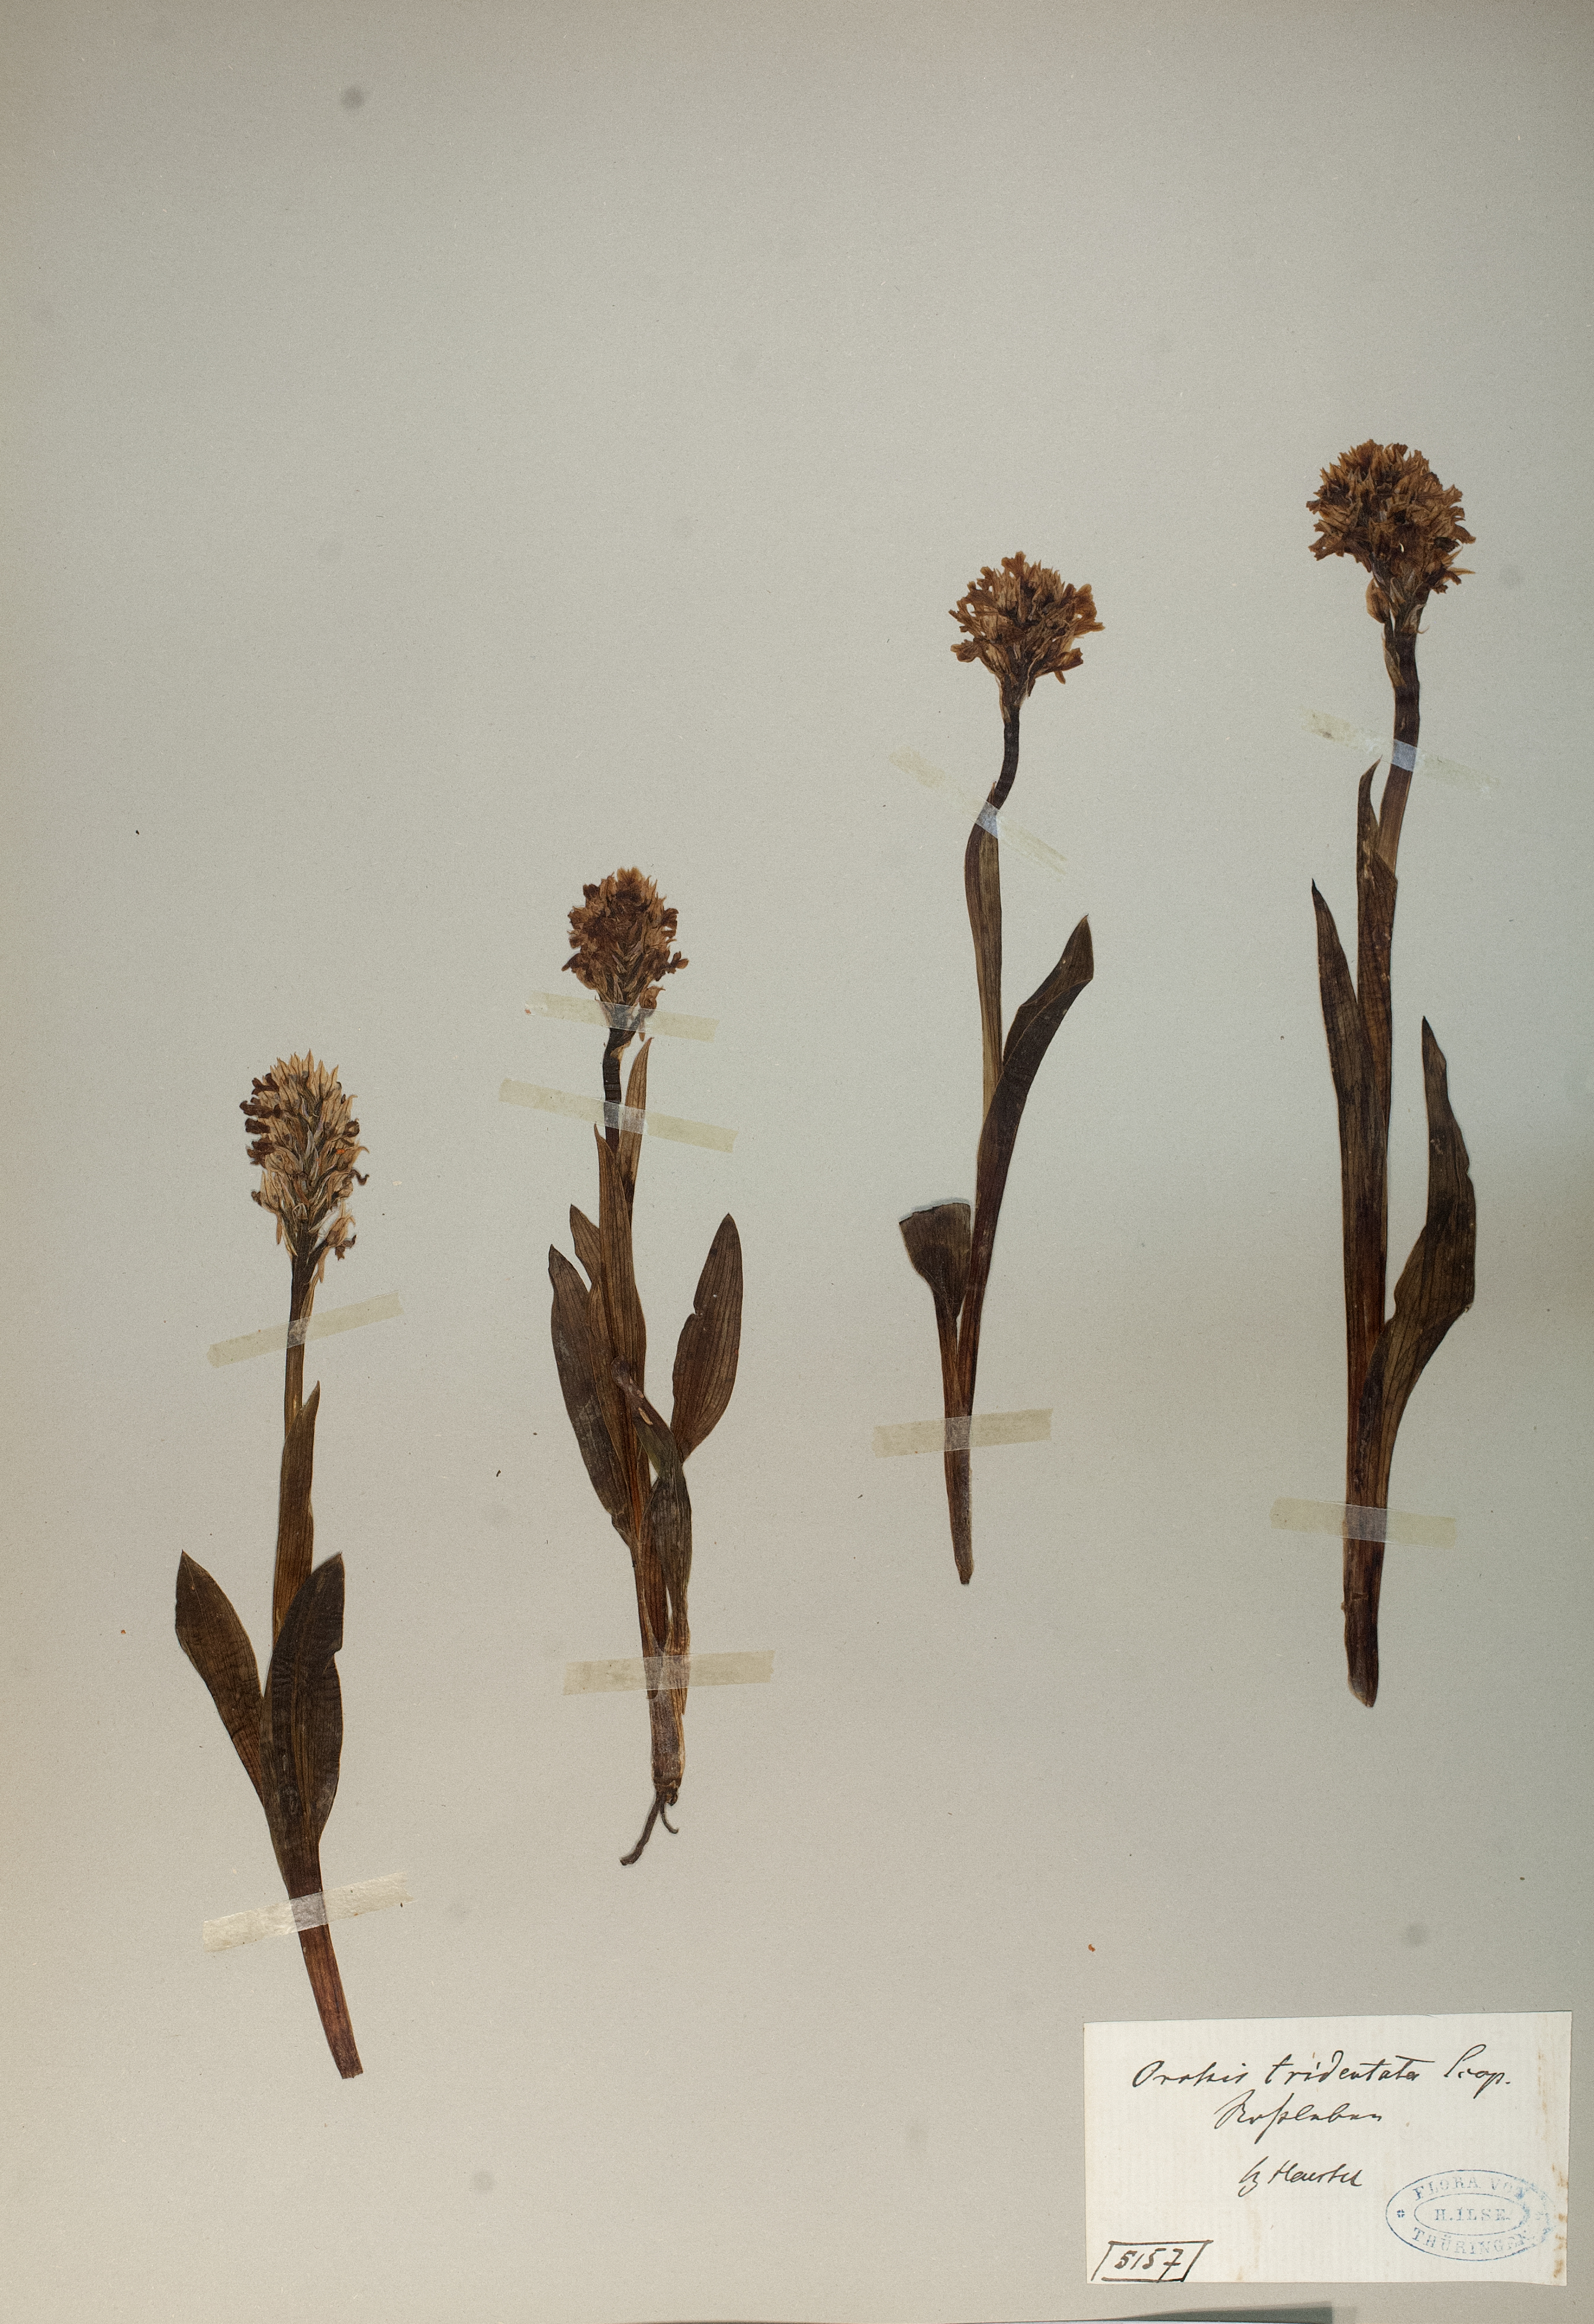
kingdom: Plantae
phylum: Tracheophyta
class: Liliopsida
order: Asparagales
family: Orchidaceae
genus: Neotinea
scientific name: Neotinea tridentata
